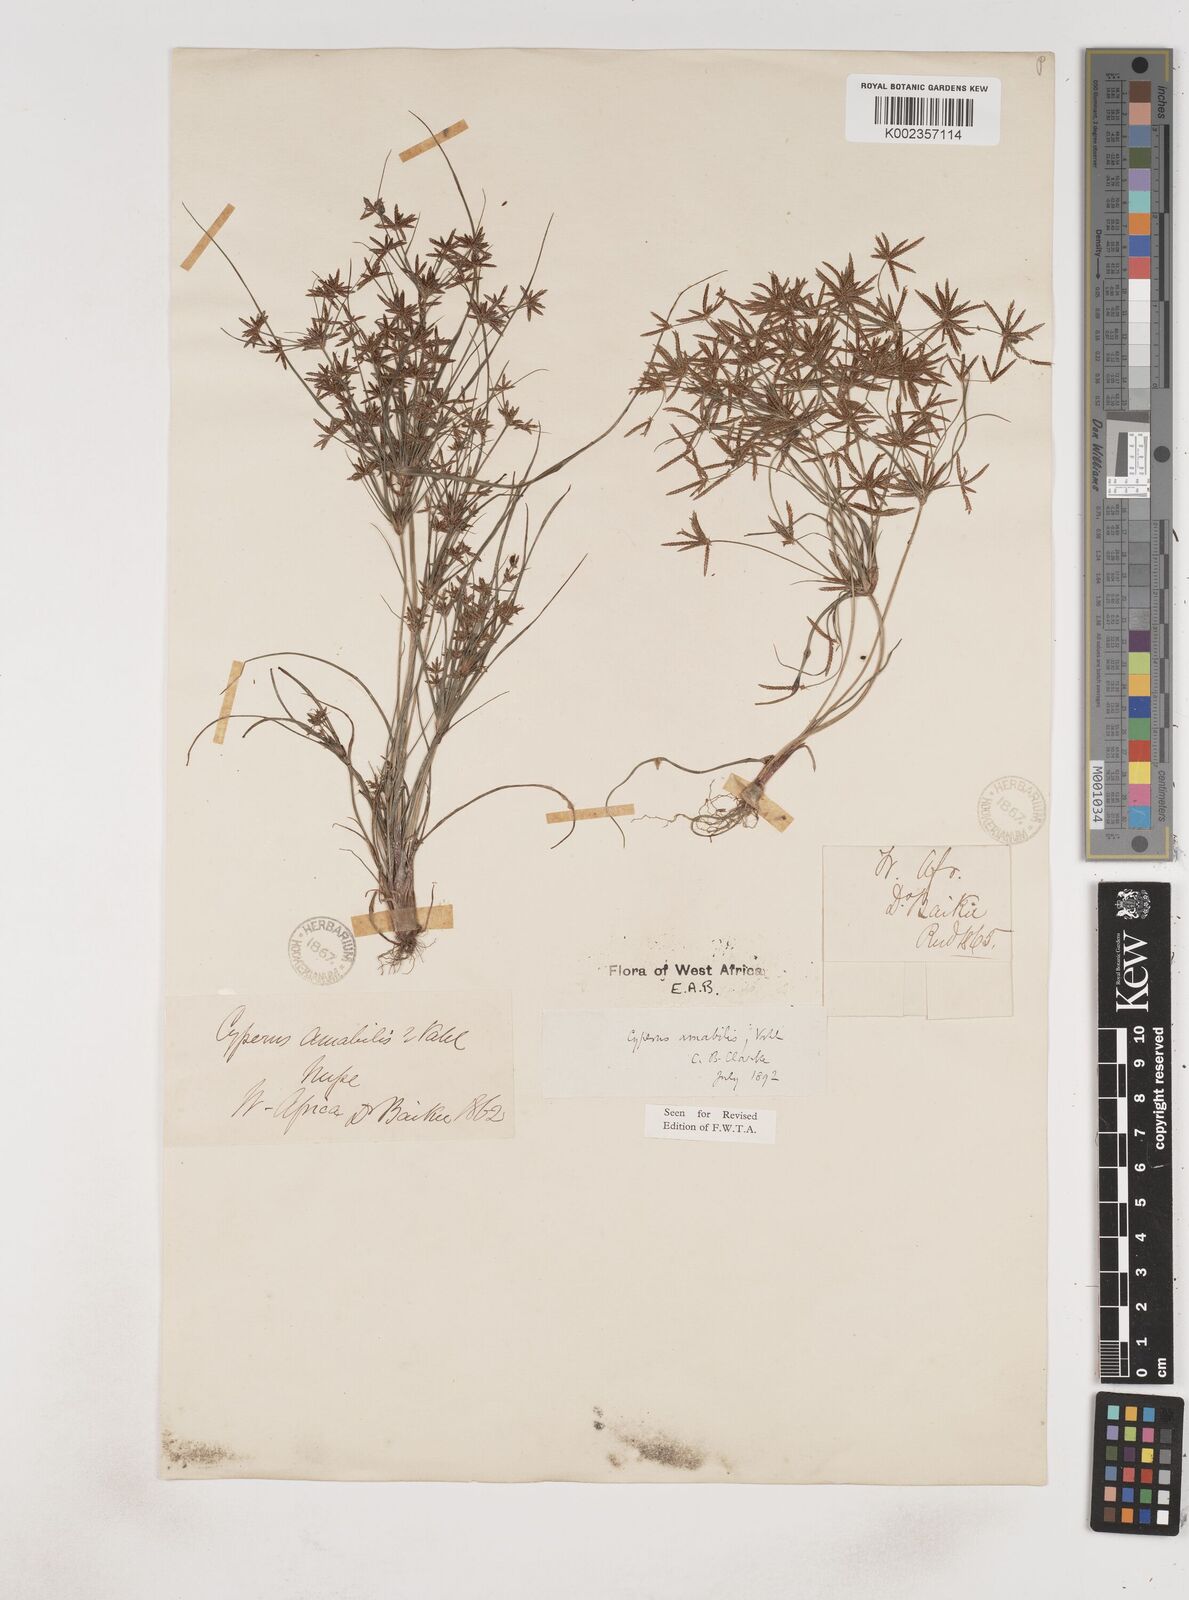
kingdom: Plantae
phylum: Tracheophyta
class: Liliopsida
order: Poales
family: Cyperaceae
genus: Cyperus
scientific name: Cyperus amabilis
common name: Foothill flat sedge
